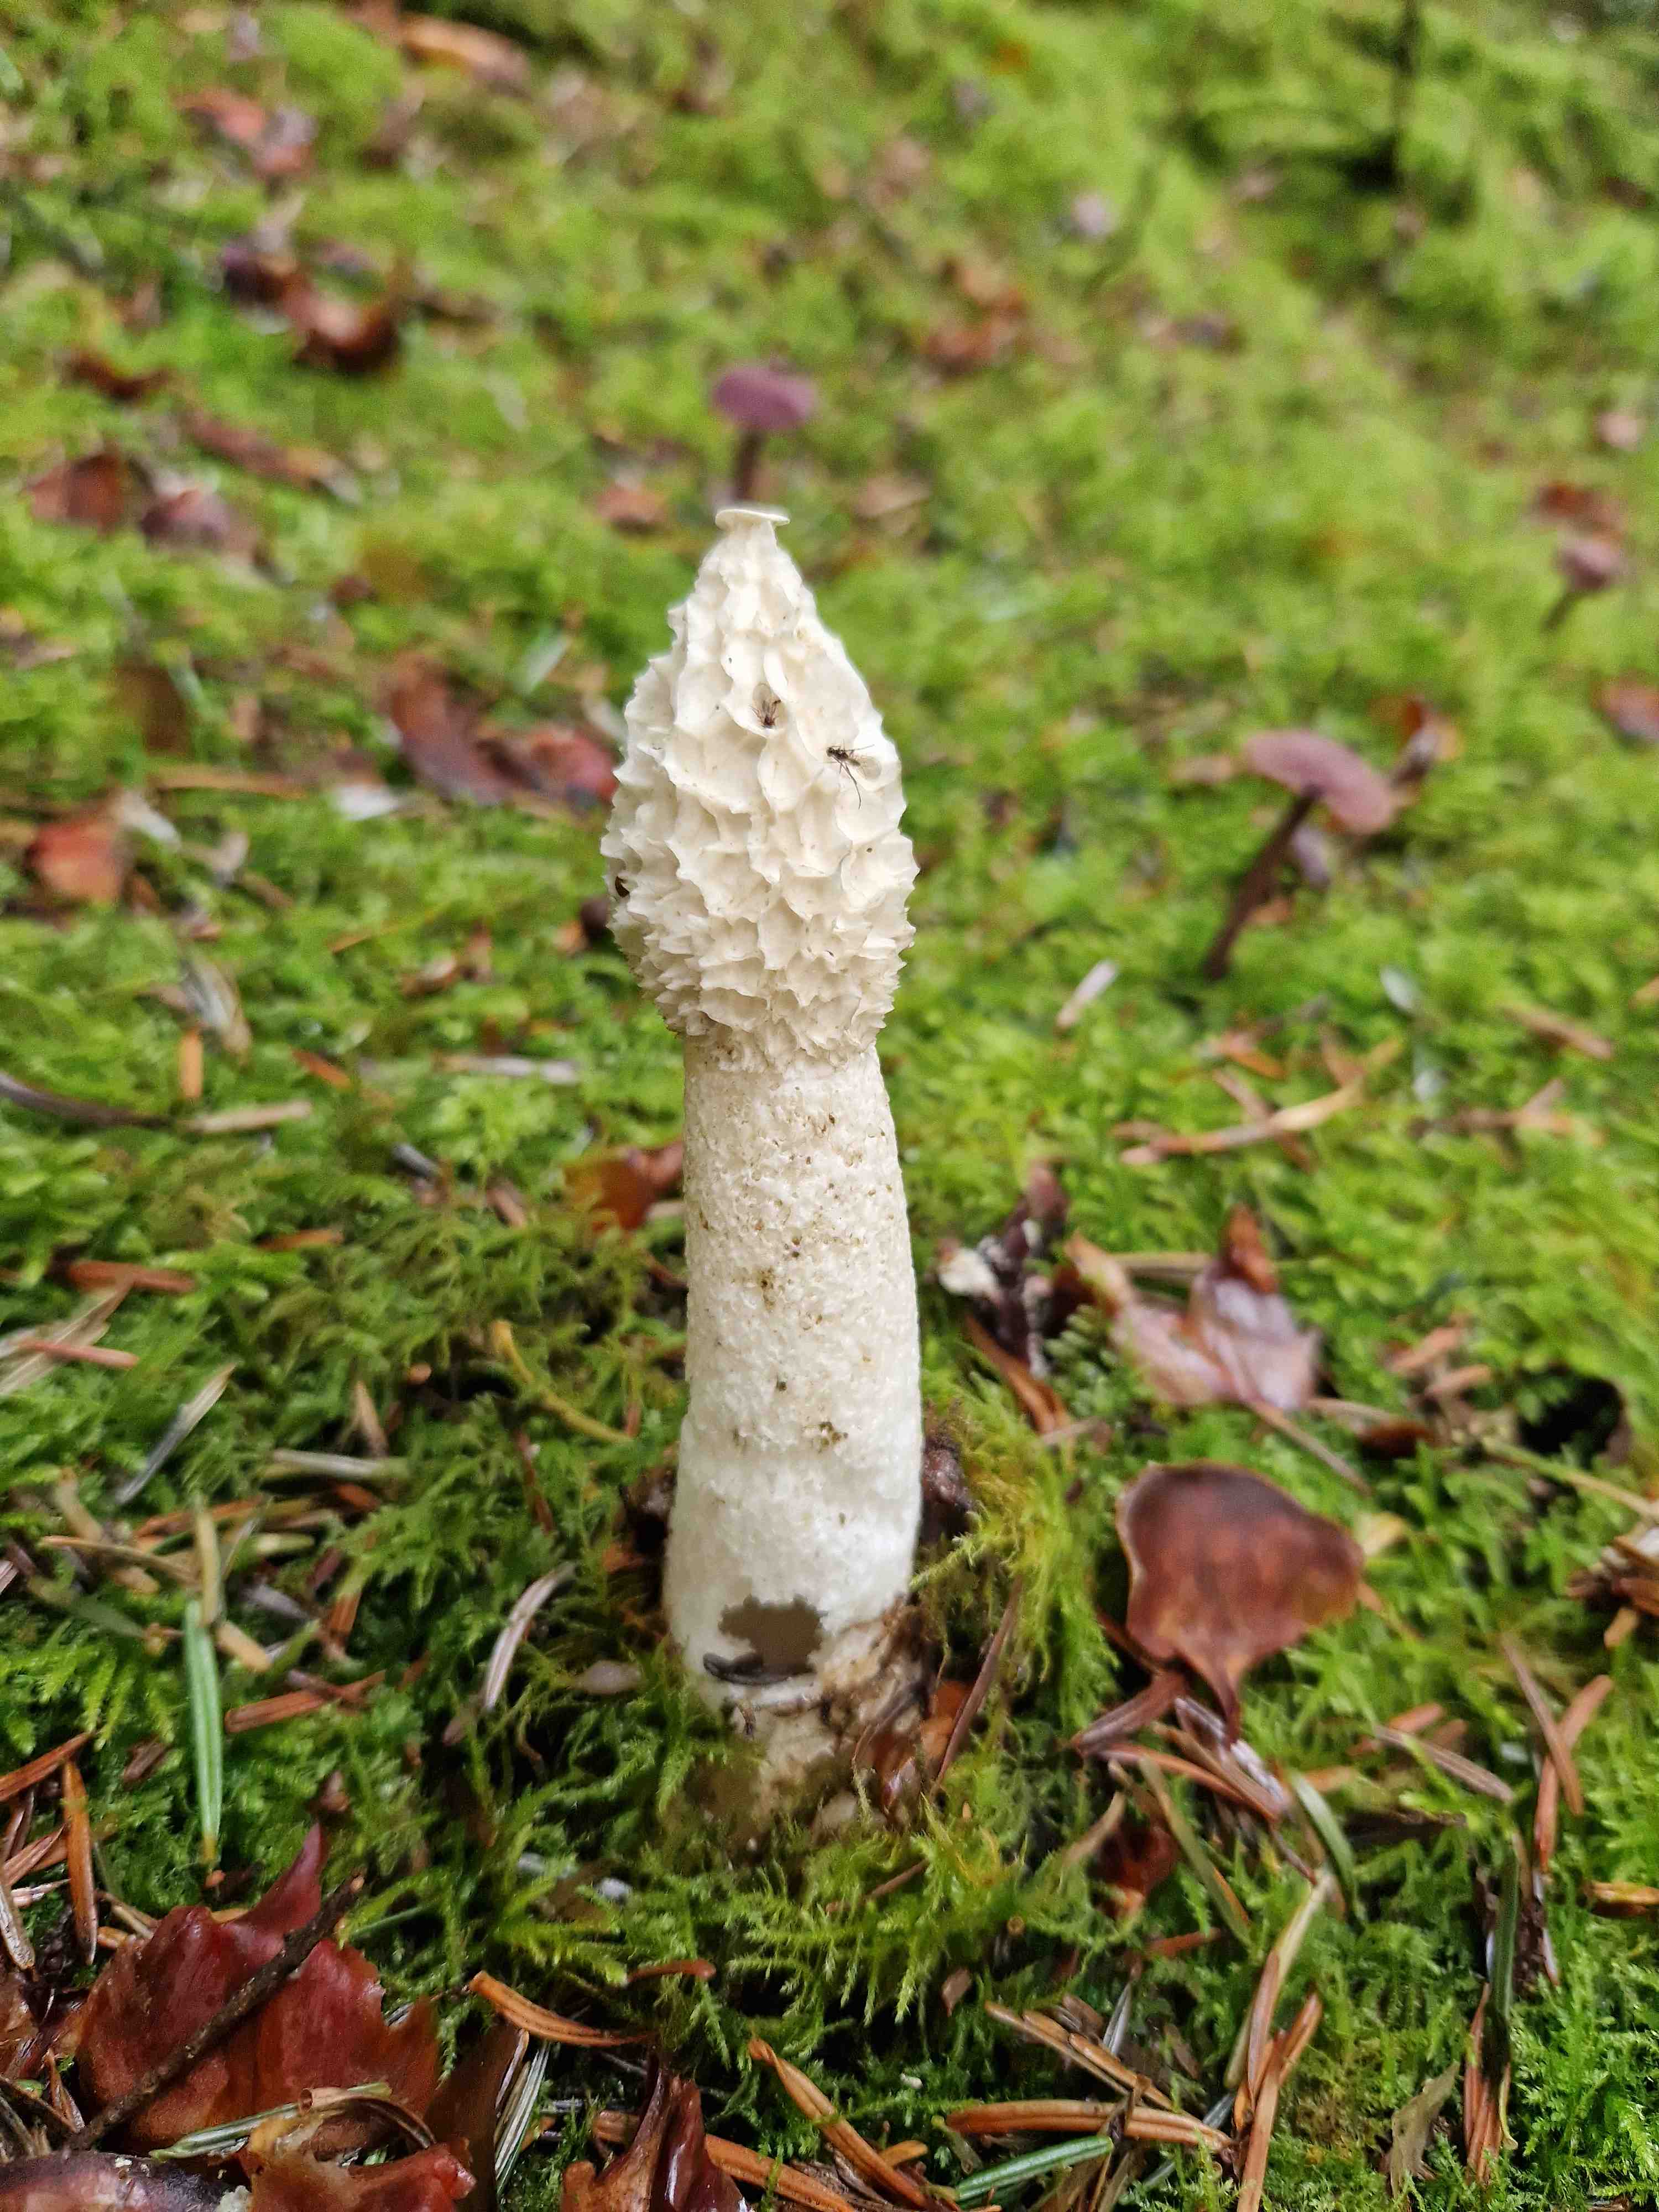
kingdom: Fungi
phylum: Basidiomycota
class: Agaricomycetes
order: Phallales
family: Phallaceae
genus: Phallus
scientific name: Phallus impudicus
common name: almindelig stinksvamp
